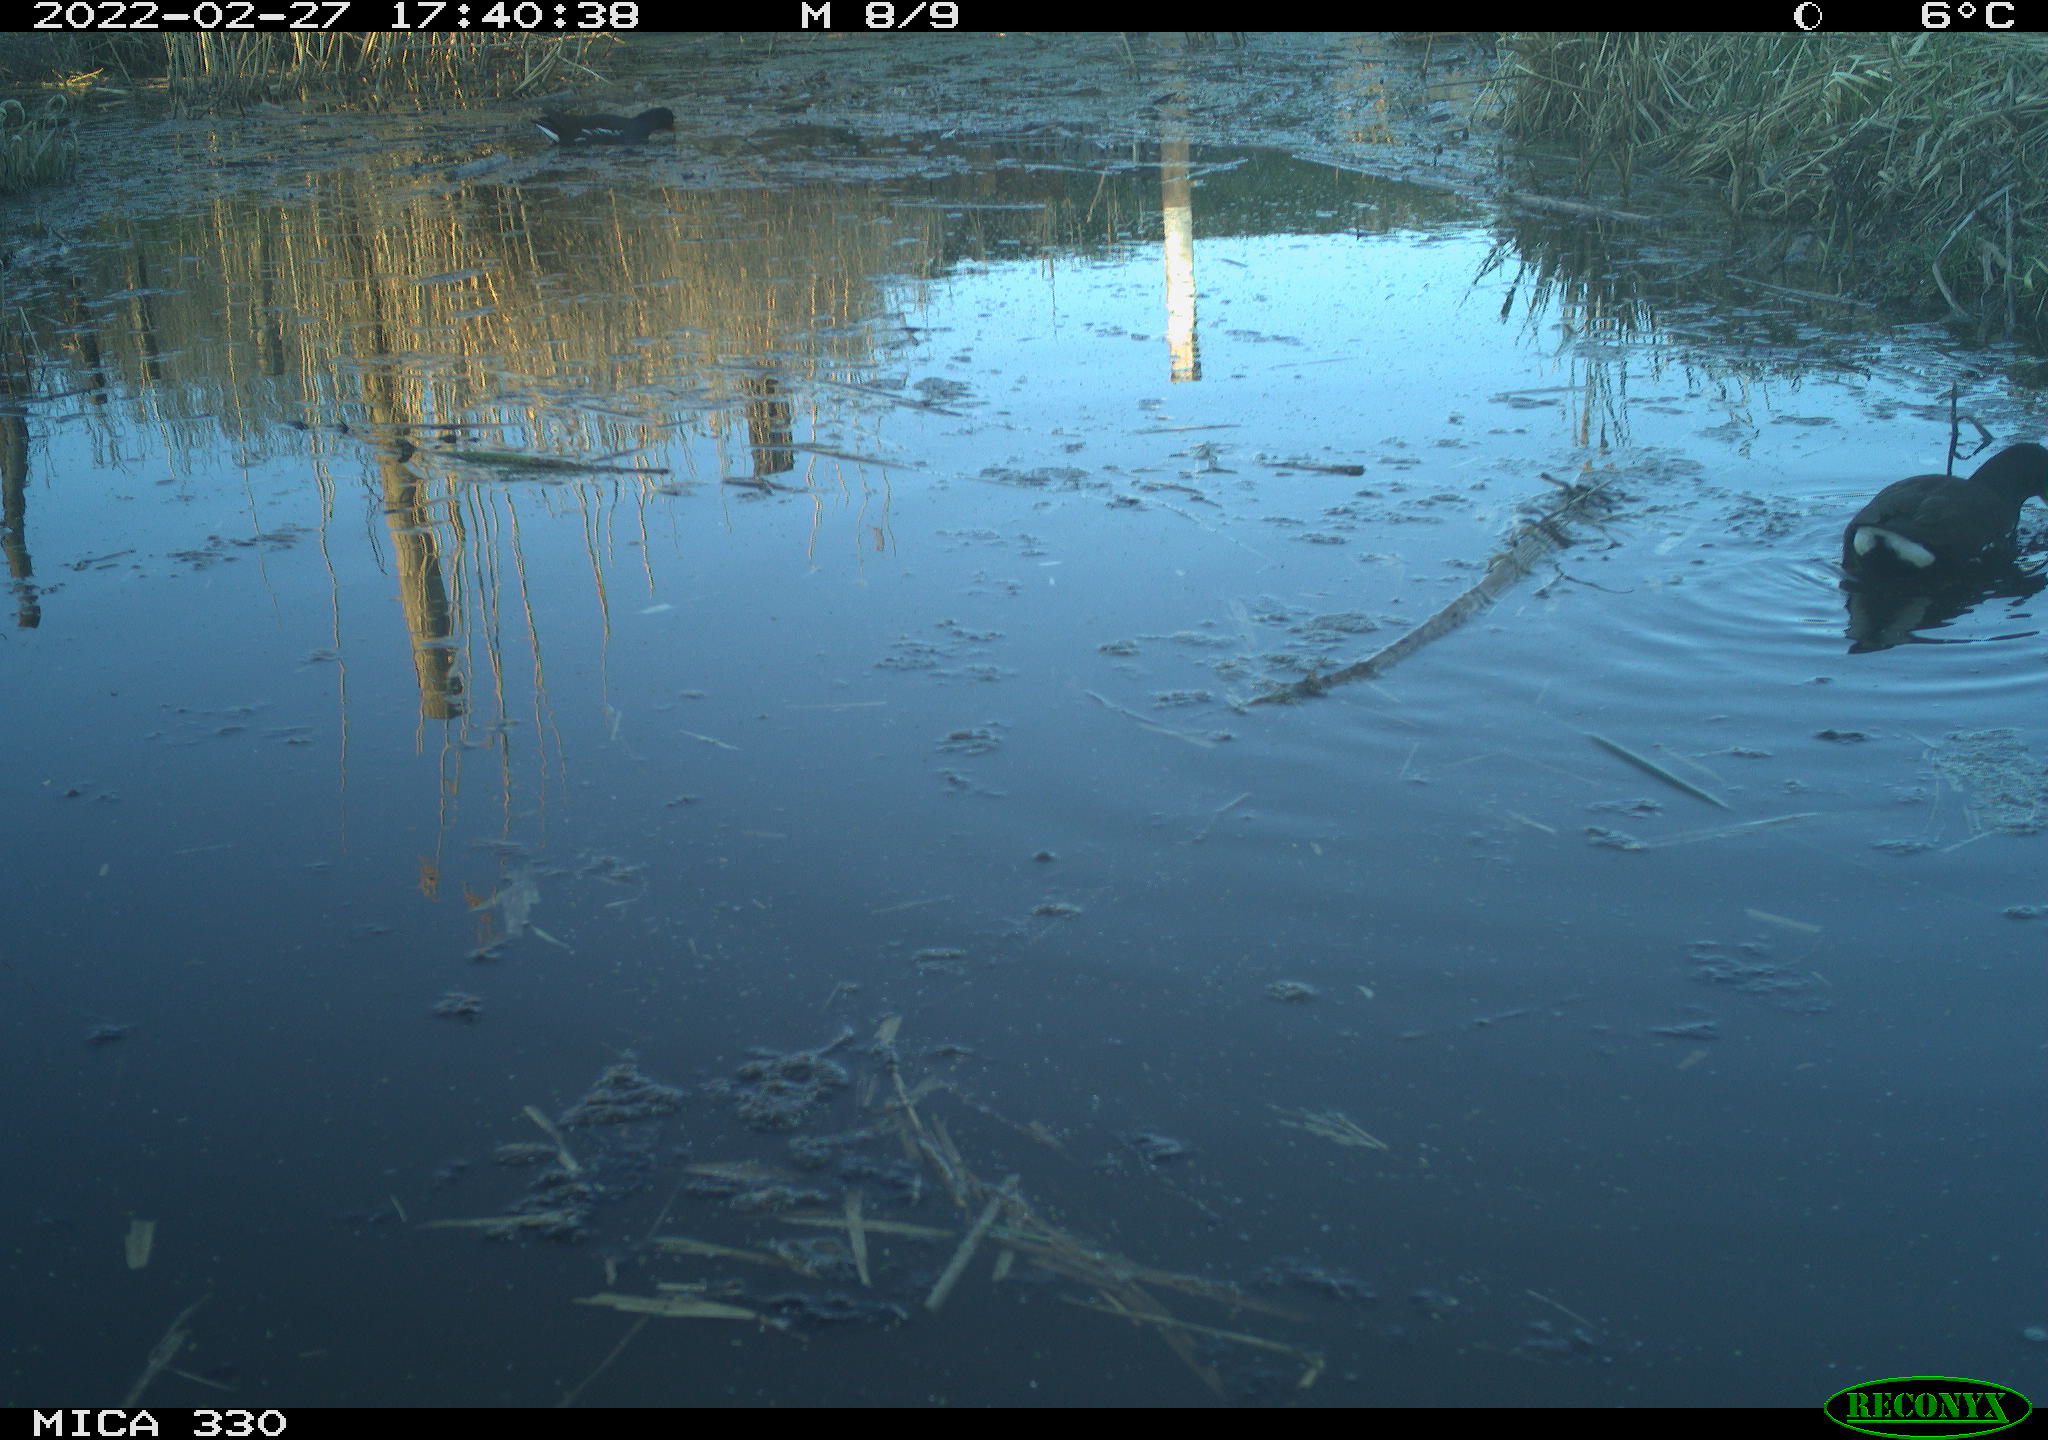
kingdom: Animalia
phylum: Chordata
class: Aves
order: Gruiformes
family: Rallidae
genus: Gallinula
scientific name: Gallinula chloropus
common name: Common moorhen
